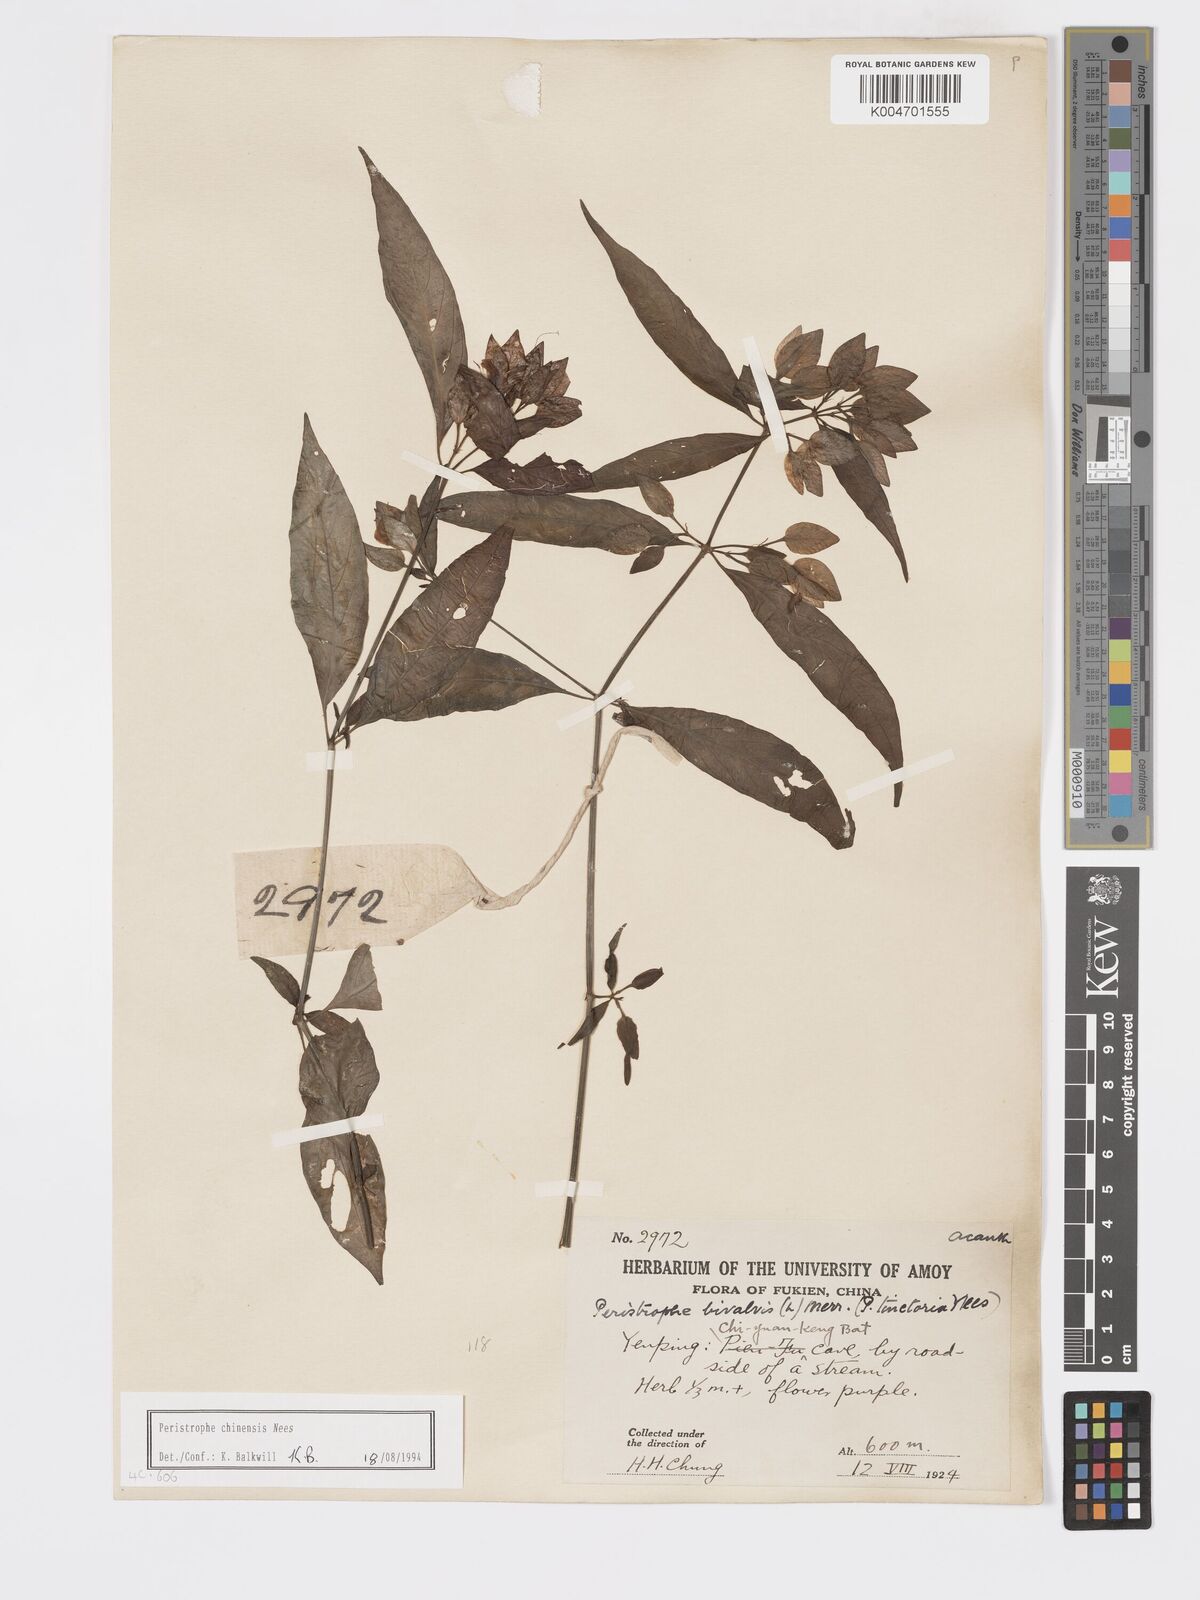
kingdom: Plantae
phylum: Tracheophyta
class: Magnoliopsida
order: Lamiales
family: Acanthaceae
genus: Dicliptera
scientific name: Dicliptera chinensis
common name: Chinese foldwing
